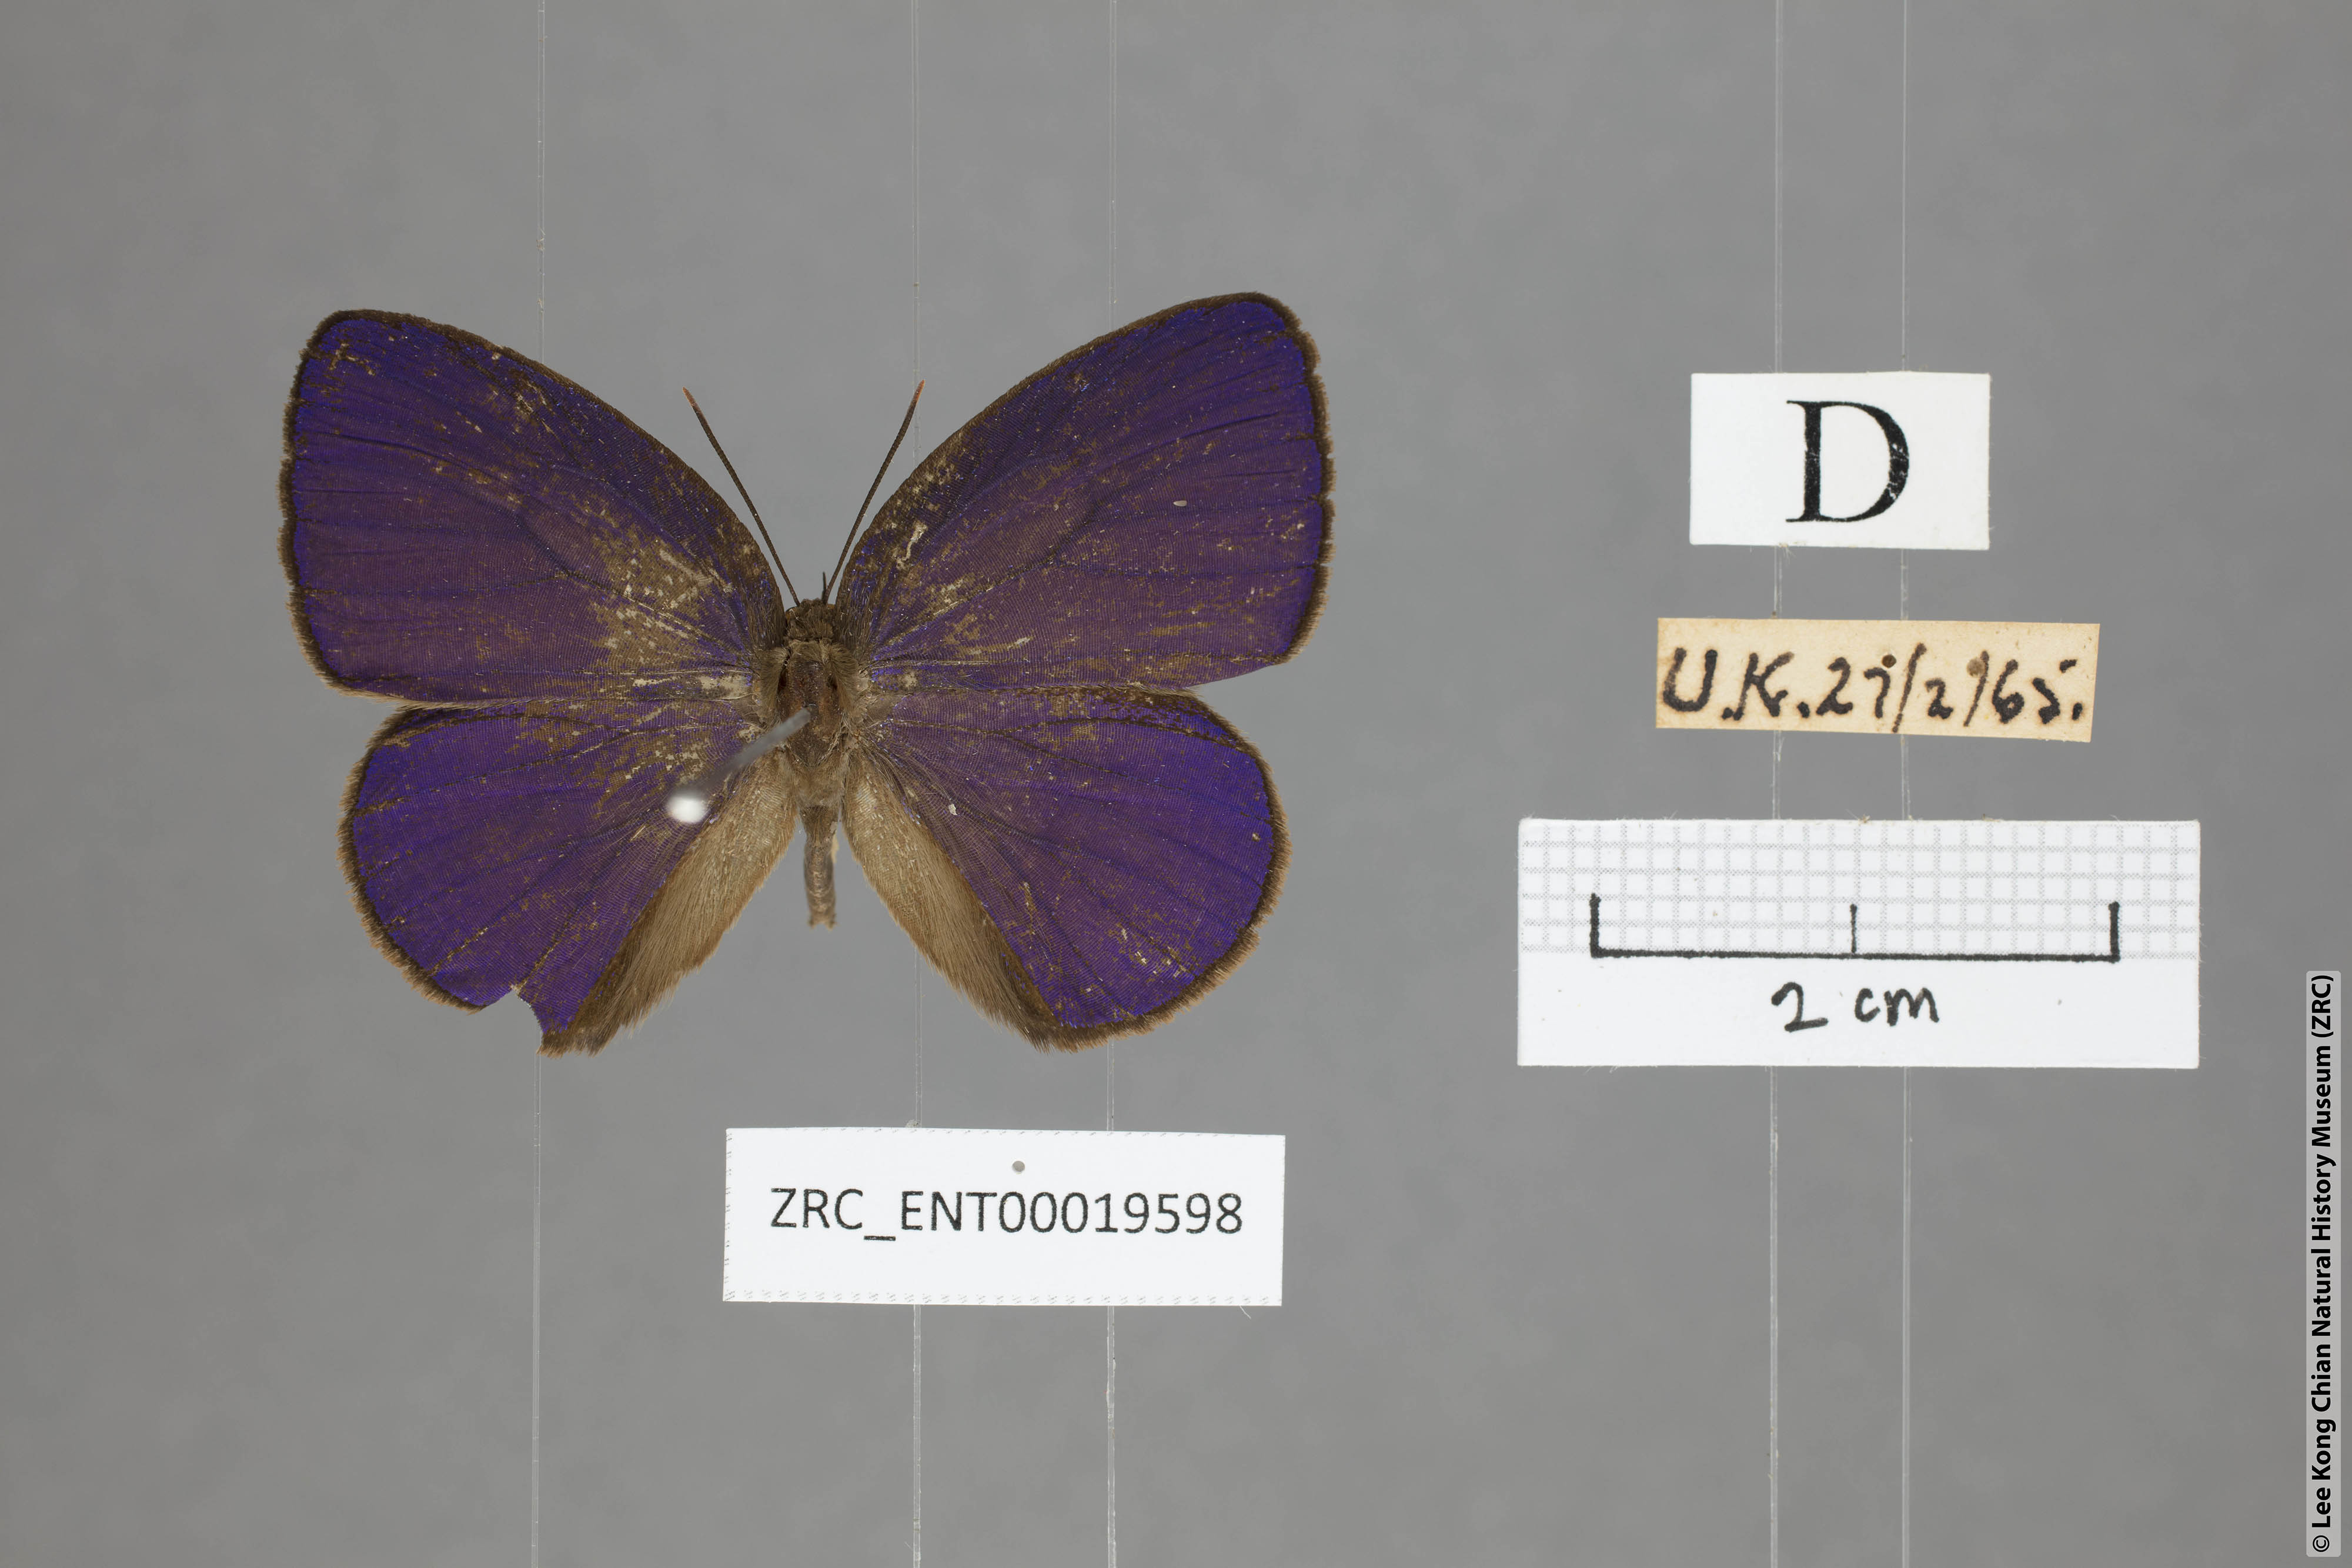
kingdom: Animalia
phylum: Arthropoda
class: Insecta
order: Lepidoptera
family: Lycaenidae
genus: Arhopala
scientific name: Arhopala kurzi
